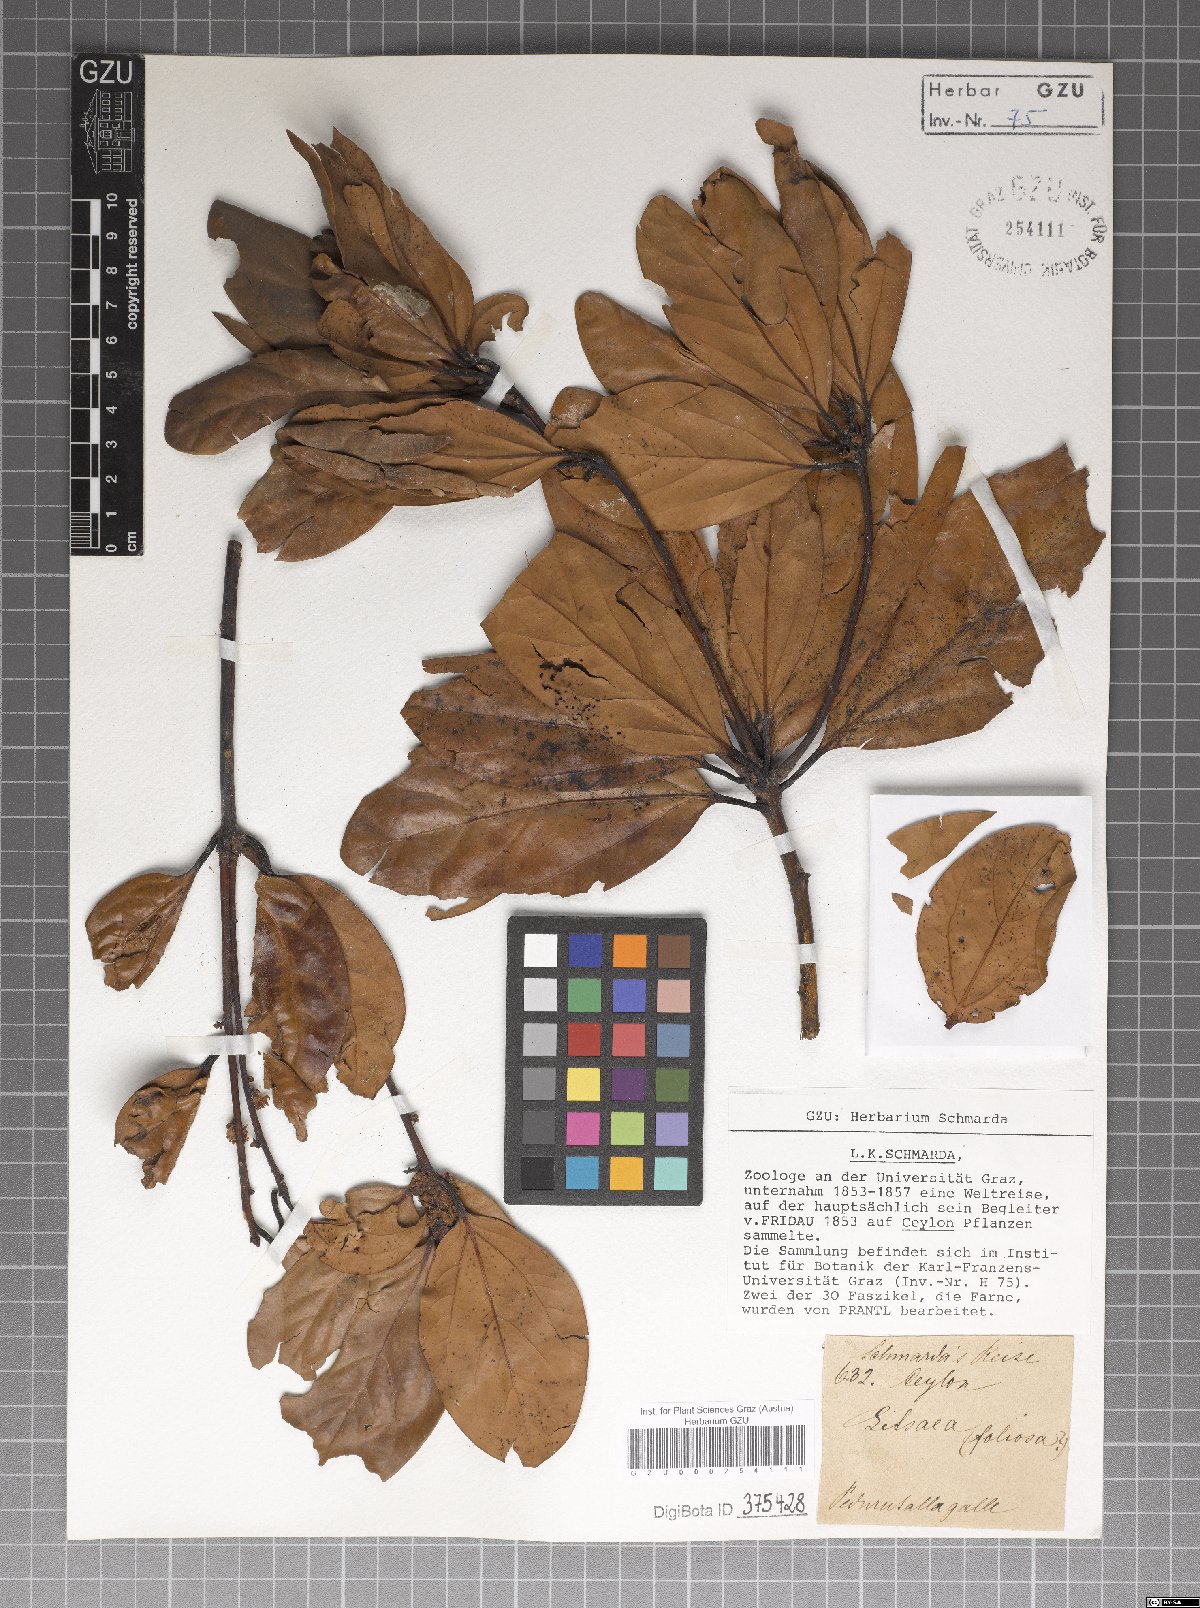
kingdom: Plantae
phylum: Tracheophyta
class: Magnoliopsida
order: Laurales
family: Lauraceae
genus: Neolitsea
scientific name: Neolitsea umbrosa
